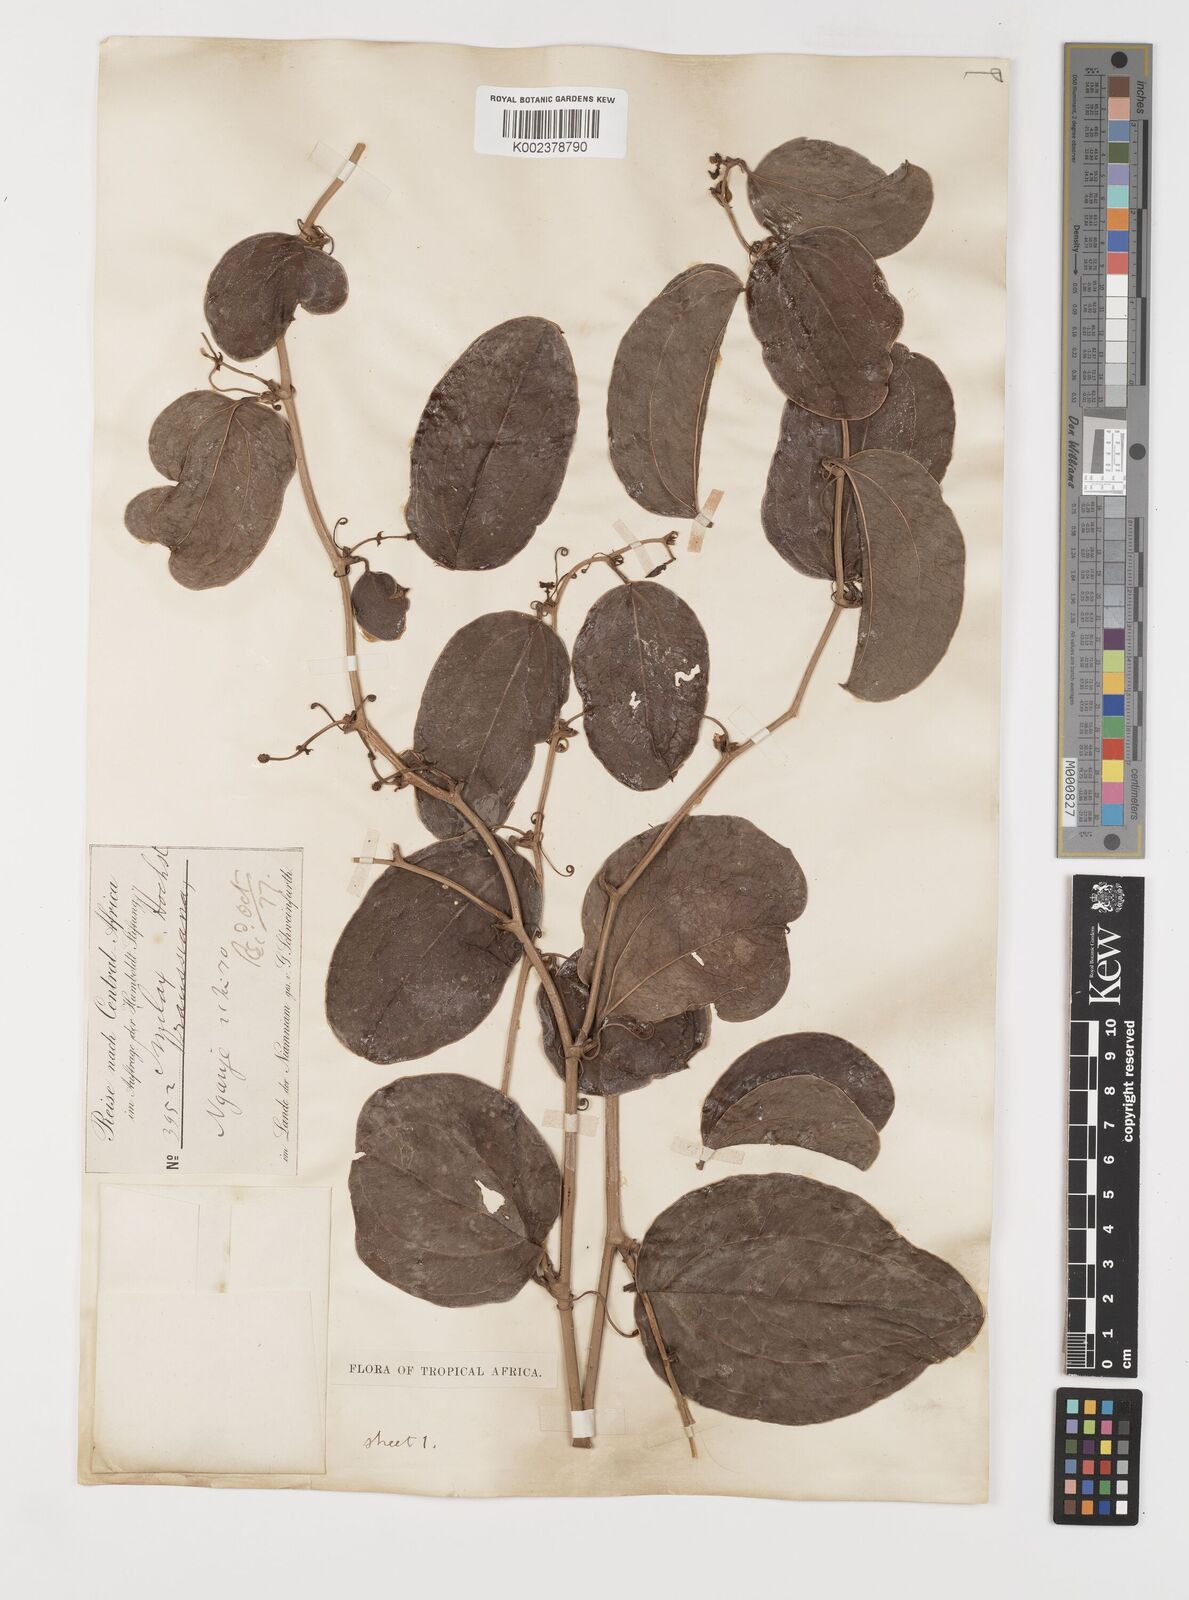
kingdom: Plantae
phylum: Tracheophyta
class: Liliopsida
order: Liliales
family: Smilacaceae
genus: Smilax
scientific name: Smilax anceps
